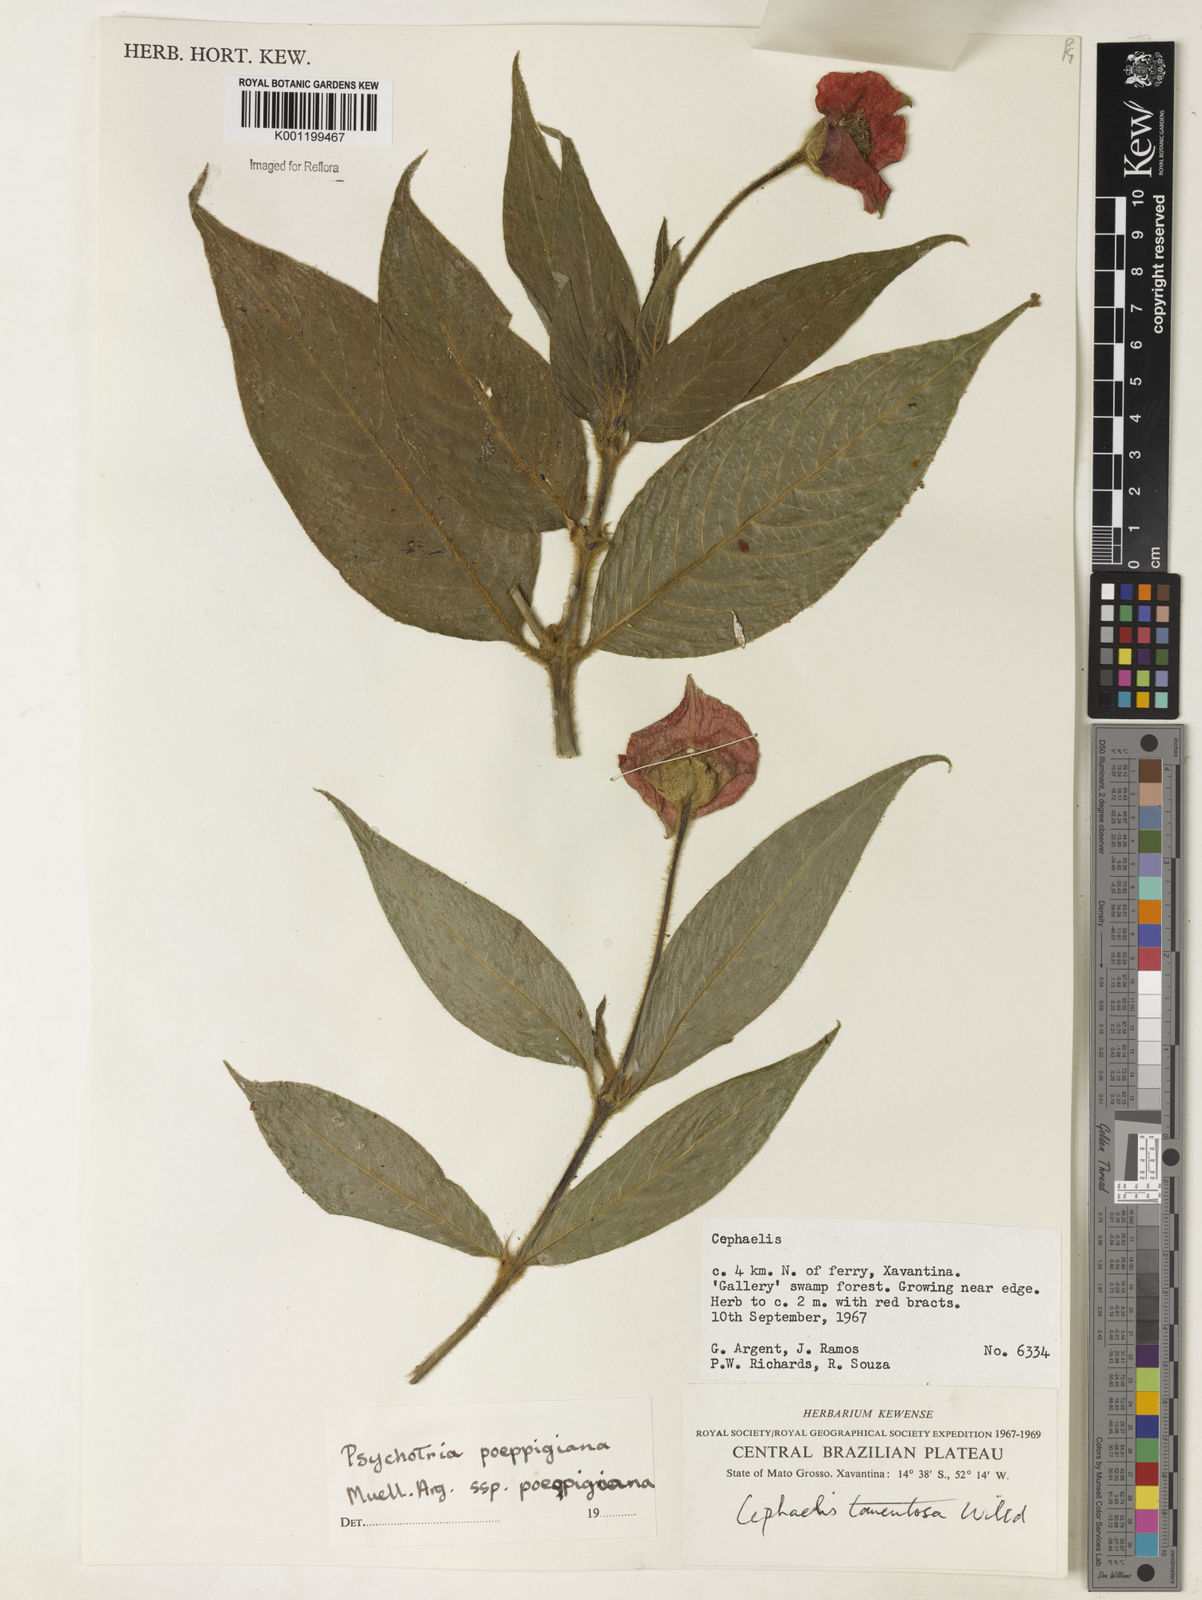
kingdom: Plantae
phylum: Tracheophyta
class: Magnoliopsida
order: Gentianales
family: Rubiaceae
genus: Psychotria
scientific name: Psychotria
